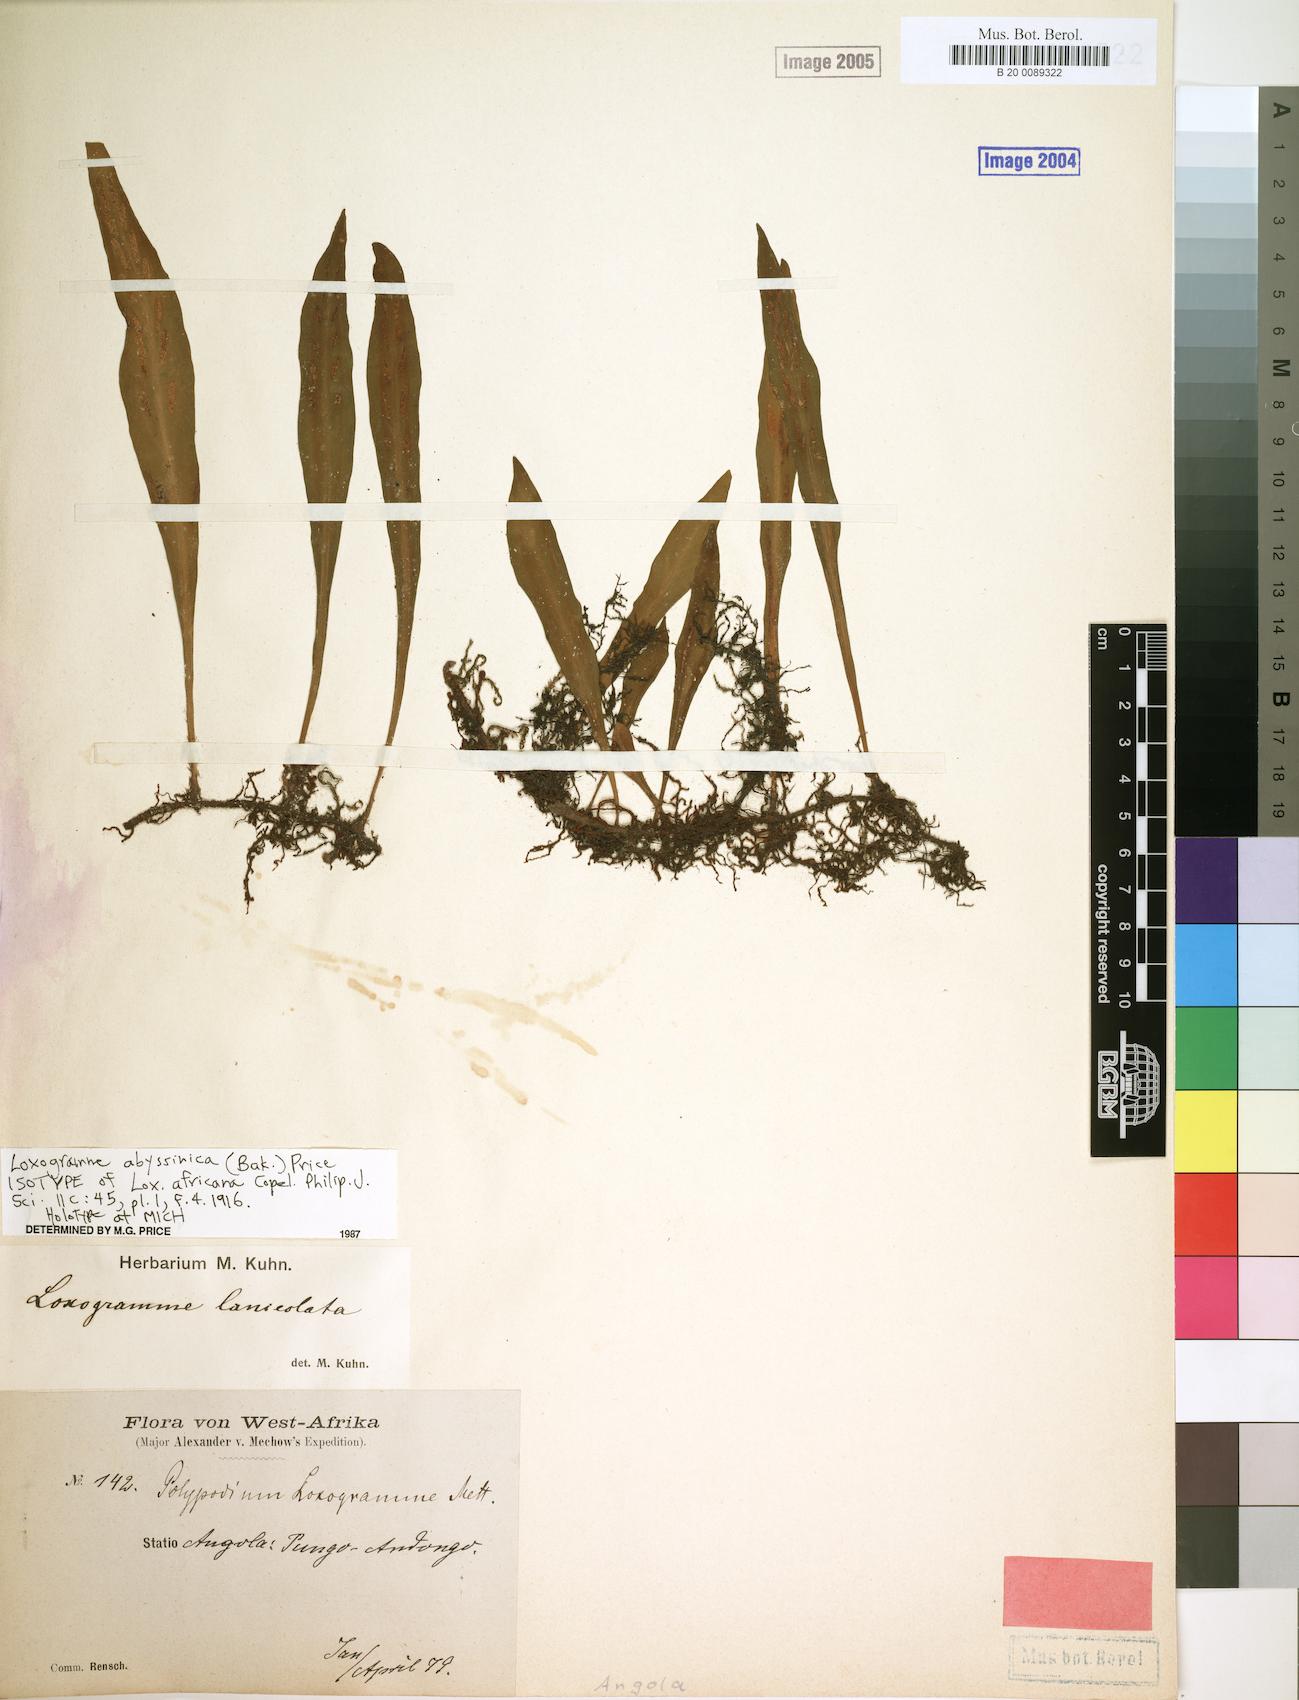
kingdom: Plantae
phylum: Tracheophyta
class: Polypodiopsida
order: Polypodiales
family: Polypodiaceae
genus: Loxogramme
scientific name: Loxogramme abyssinica
